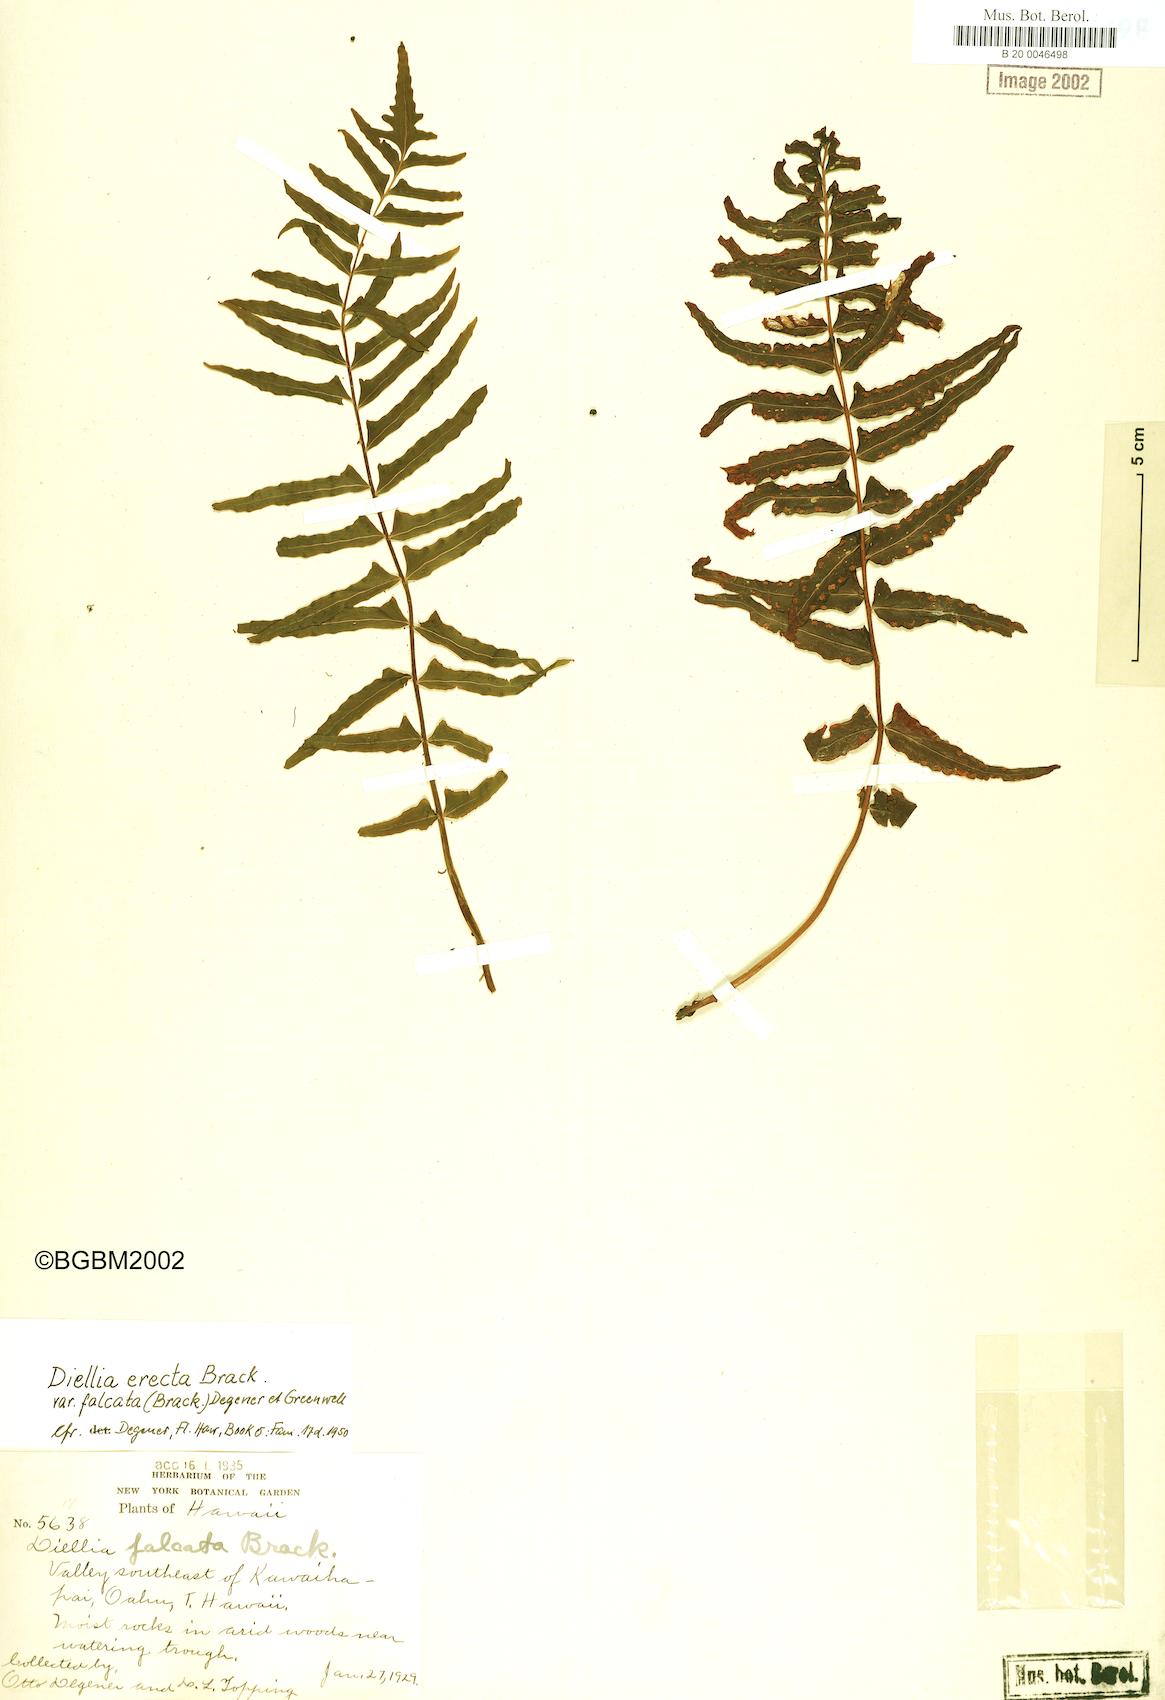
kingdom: Plantae
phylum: Tracheophyta
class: Polypodiopsida
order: Polypodiales
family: Aspleniaceae
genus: Asplenium
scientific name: Asplenium dielfalcatum
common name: Sickle island spleenwort
